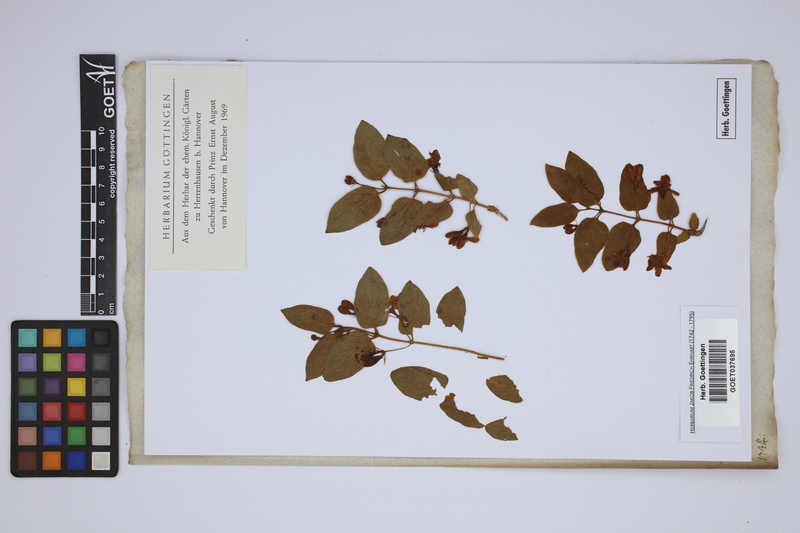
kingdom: Plantae
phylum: Tracheophyta
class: Magnoliopsida
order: Dipsacales
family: Caprifoliaceae
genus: Lonicera
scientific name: Lonicera tatarica
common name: Tatarian honeysuckle
